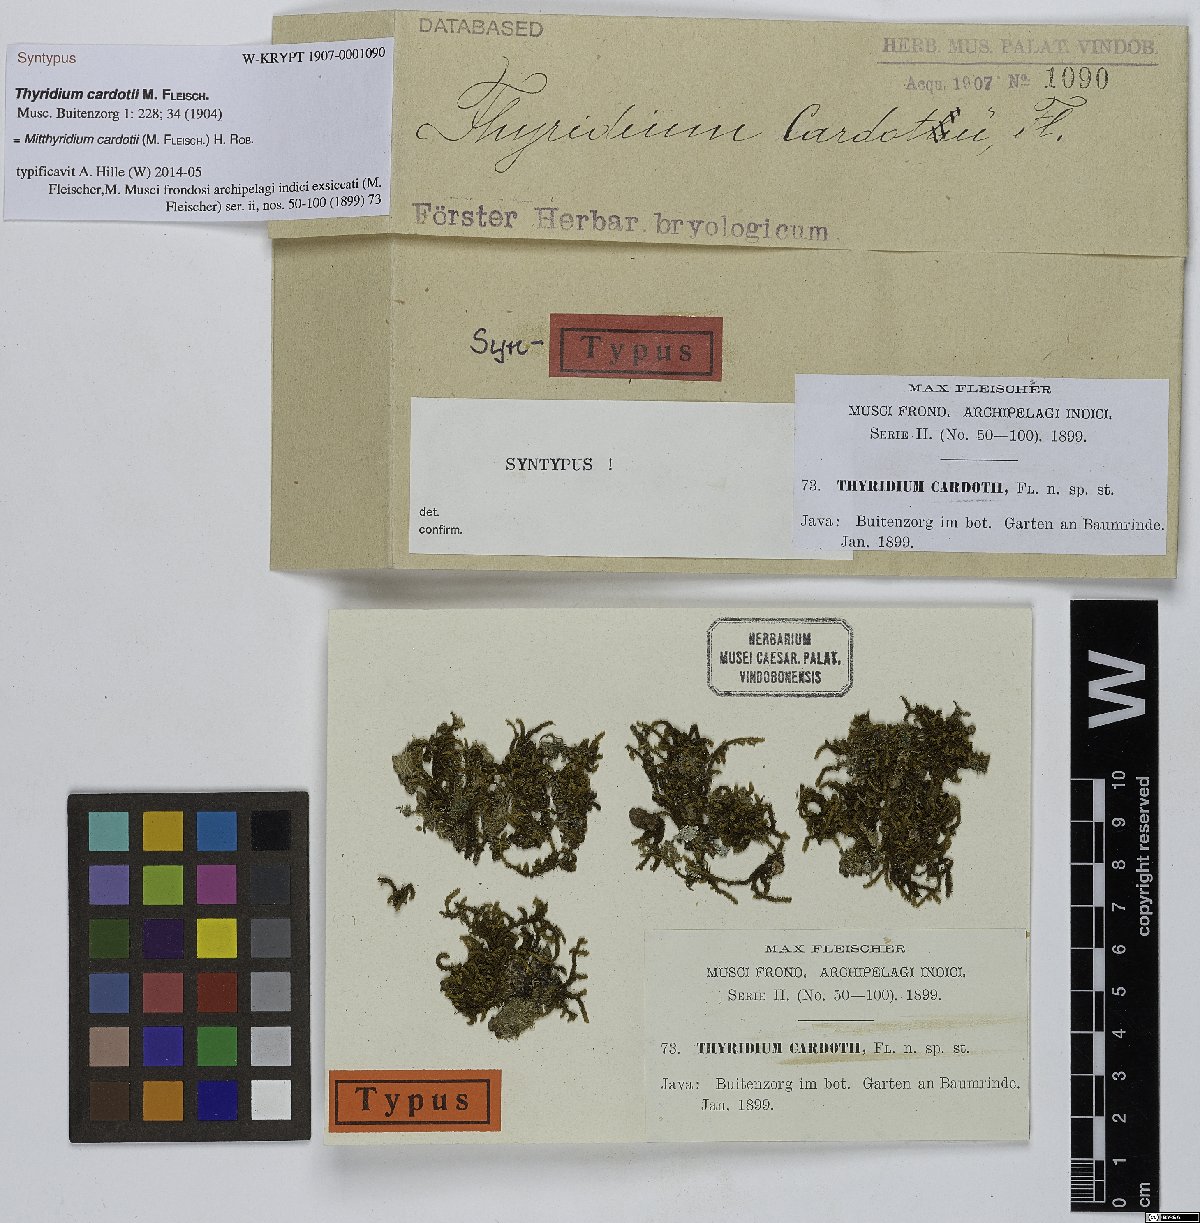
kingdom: Plantae
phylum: Bryophyta
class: Bryopsida
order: Dicranales
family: Calymperaceae
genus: Mitthyridium
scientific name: Mitthyridium fasciculatum
